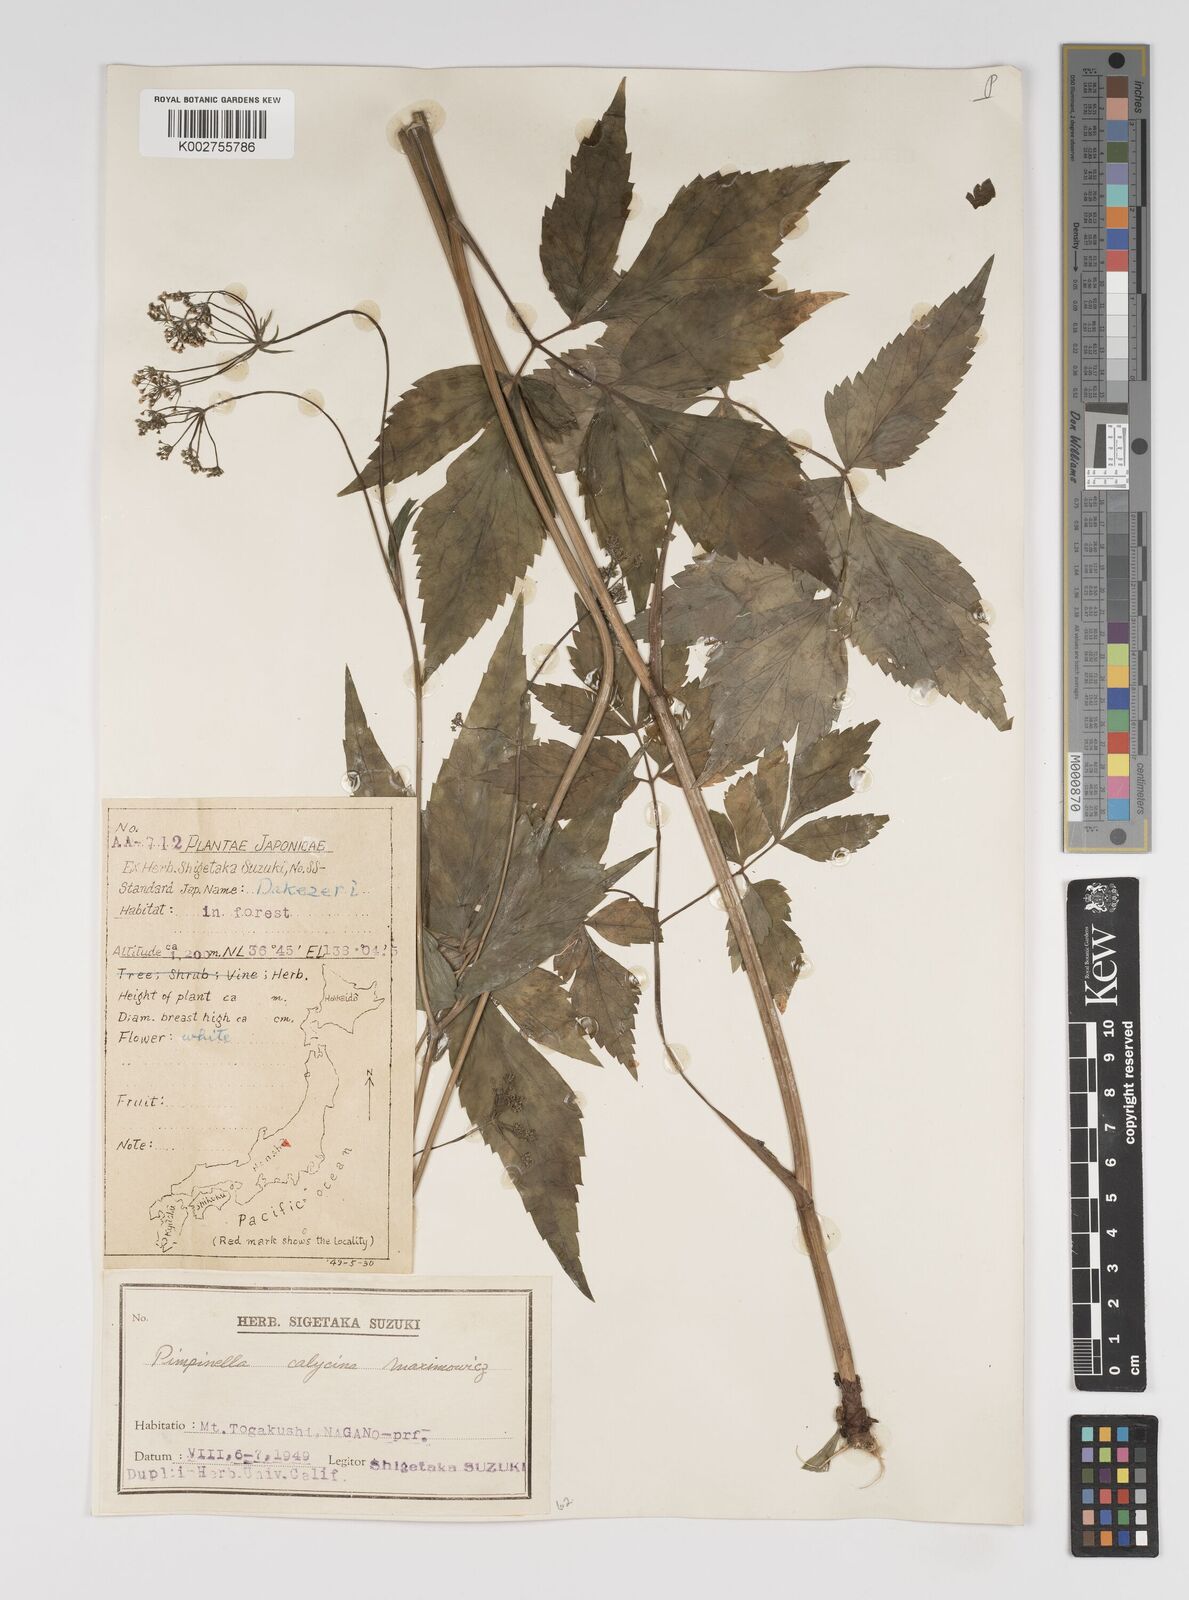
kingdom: Plantae
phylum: Tracheophyta
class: Magnoliopsida
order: Apiales
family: Apiaceae
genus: Spuriopimpinella
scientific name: Spuriopimpinella calycina
